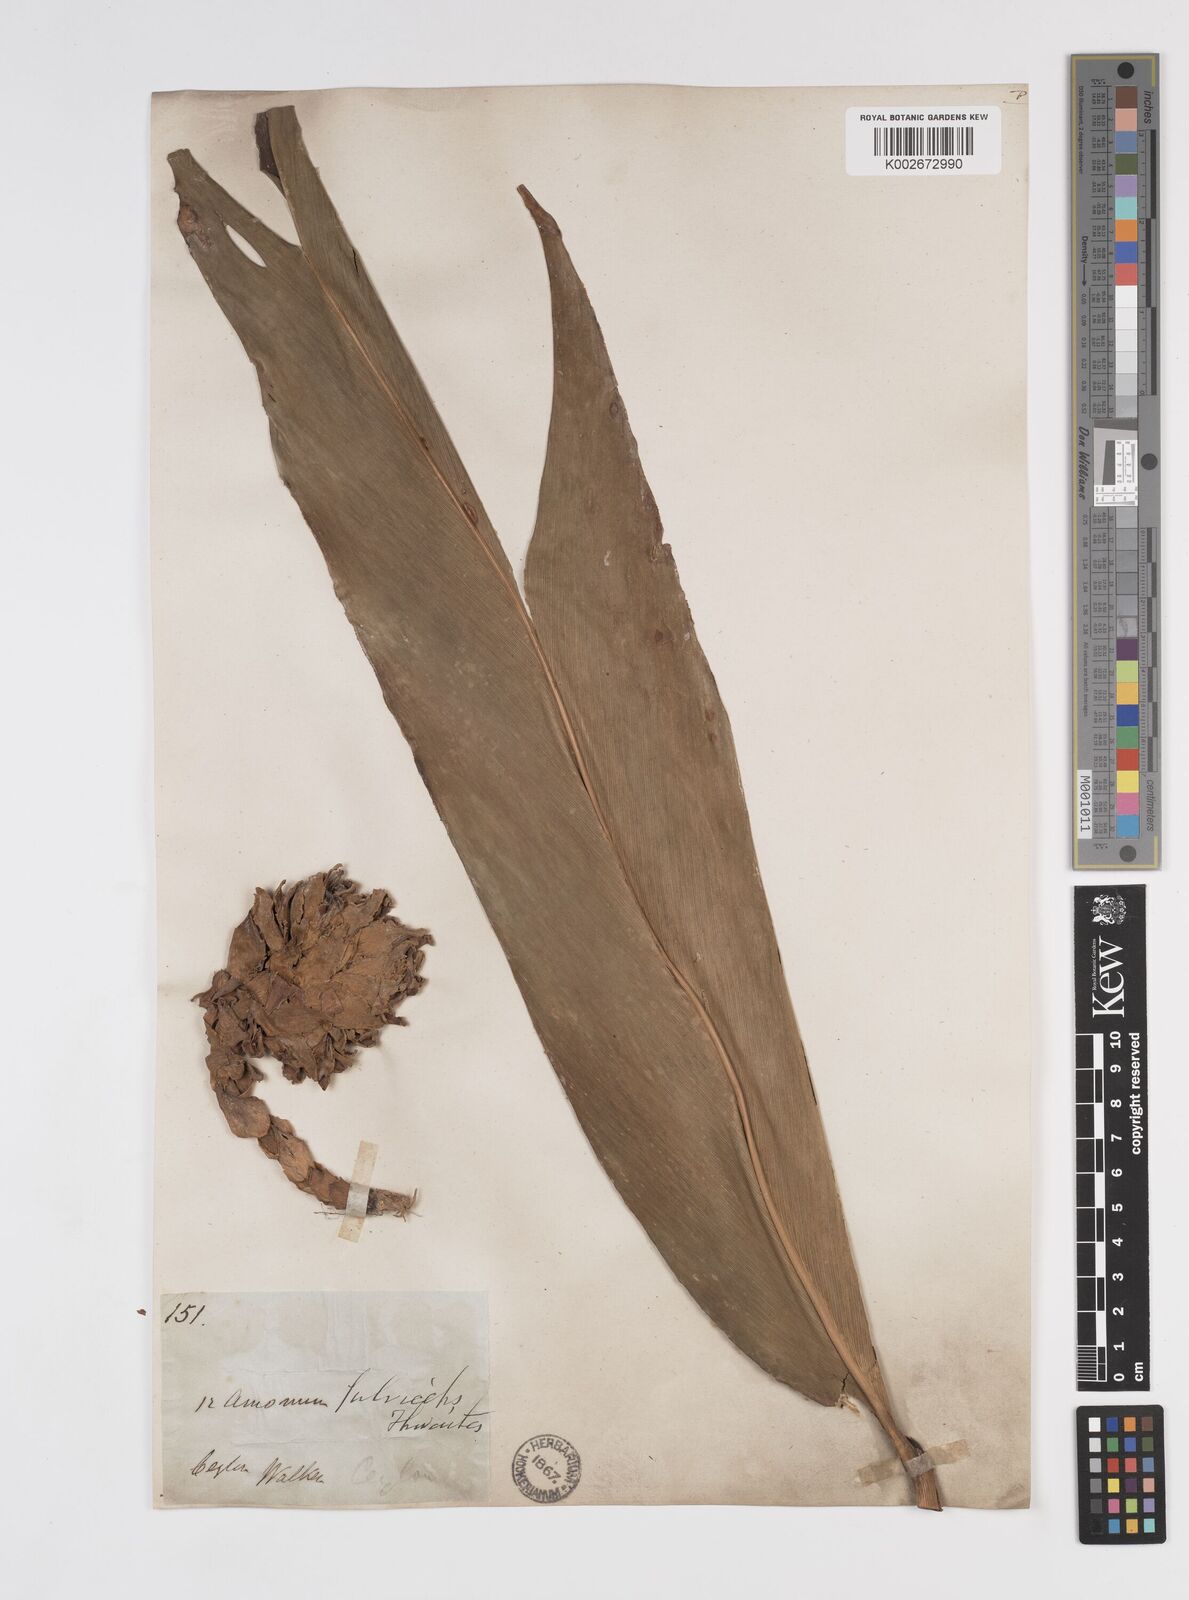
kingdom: Plantae
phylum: Tracheophyta
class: Liliopsida
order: Zingiberales
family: Zingiberaceae
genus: Meistera
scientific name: Meistera fulviceps
